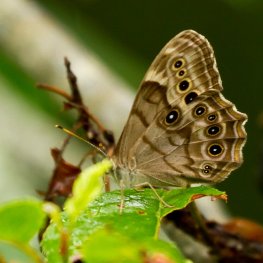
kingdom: Animalia
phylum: Arthropoda
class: Insecta
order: Lepidoptera
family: Nymphalidae
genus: Lethe
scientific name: Lethe anthedon
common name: Northern Pearly-Eye
